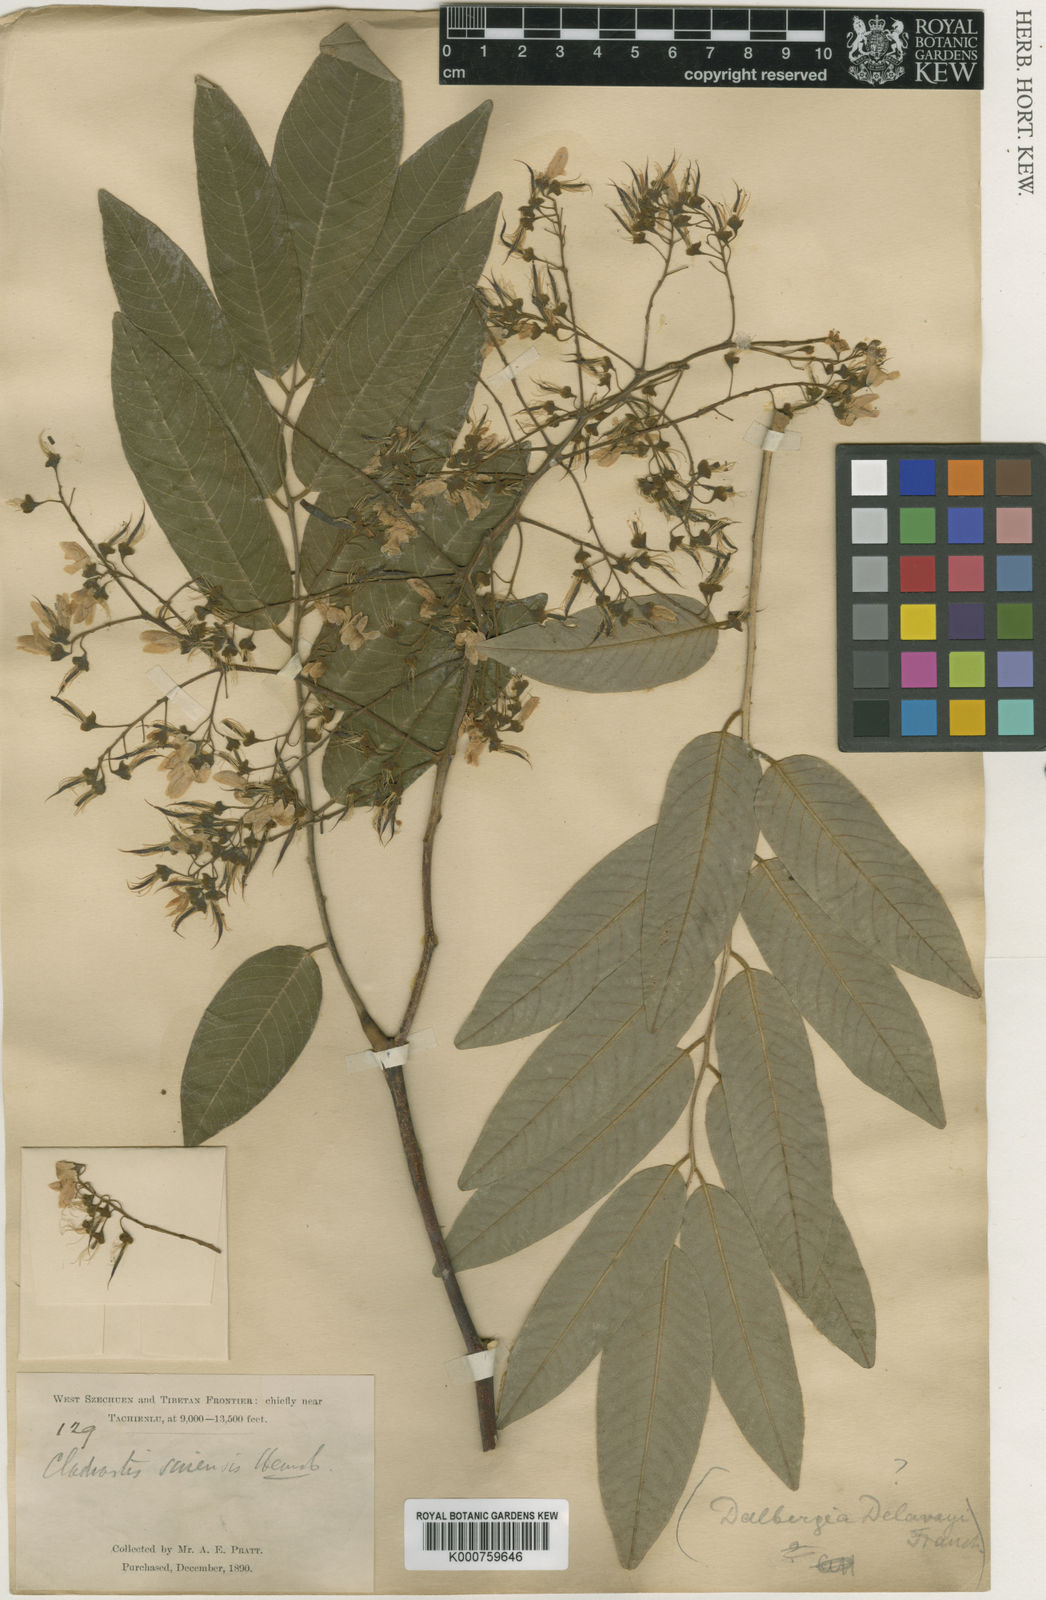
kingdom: Plantae
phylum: Tracheophyta
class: Magnoliopsida
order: Fabales
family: Fabaceae
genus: Cladrastis
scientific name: Cladrastis delavayi
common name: Chinese yellowwood
